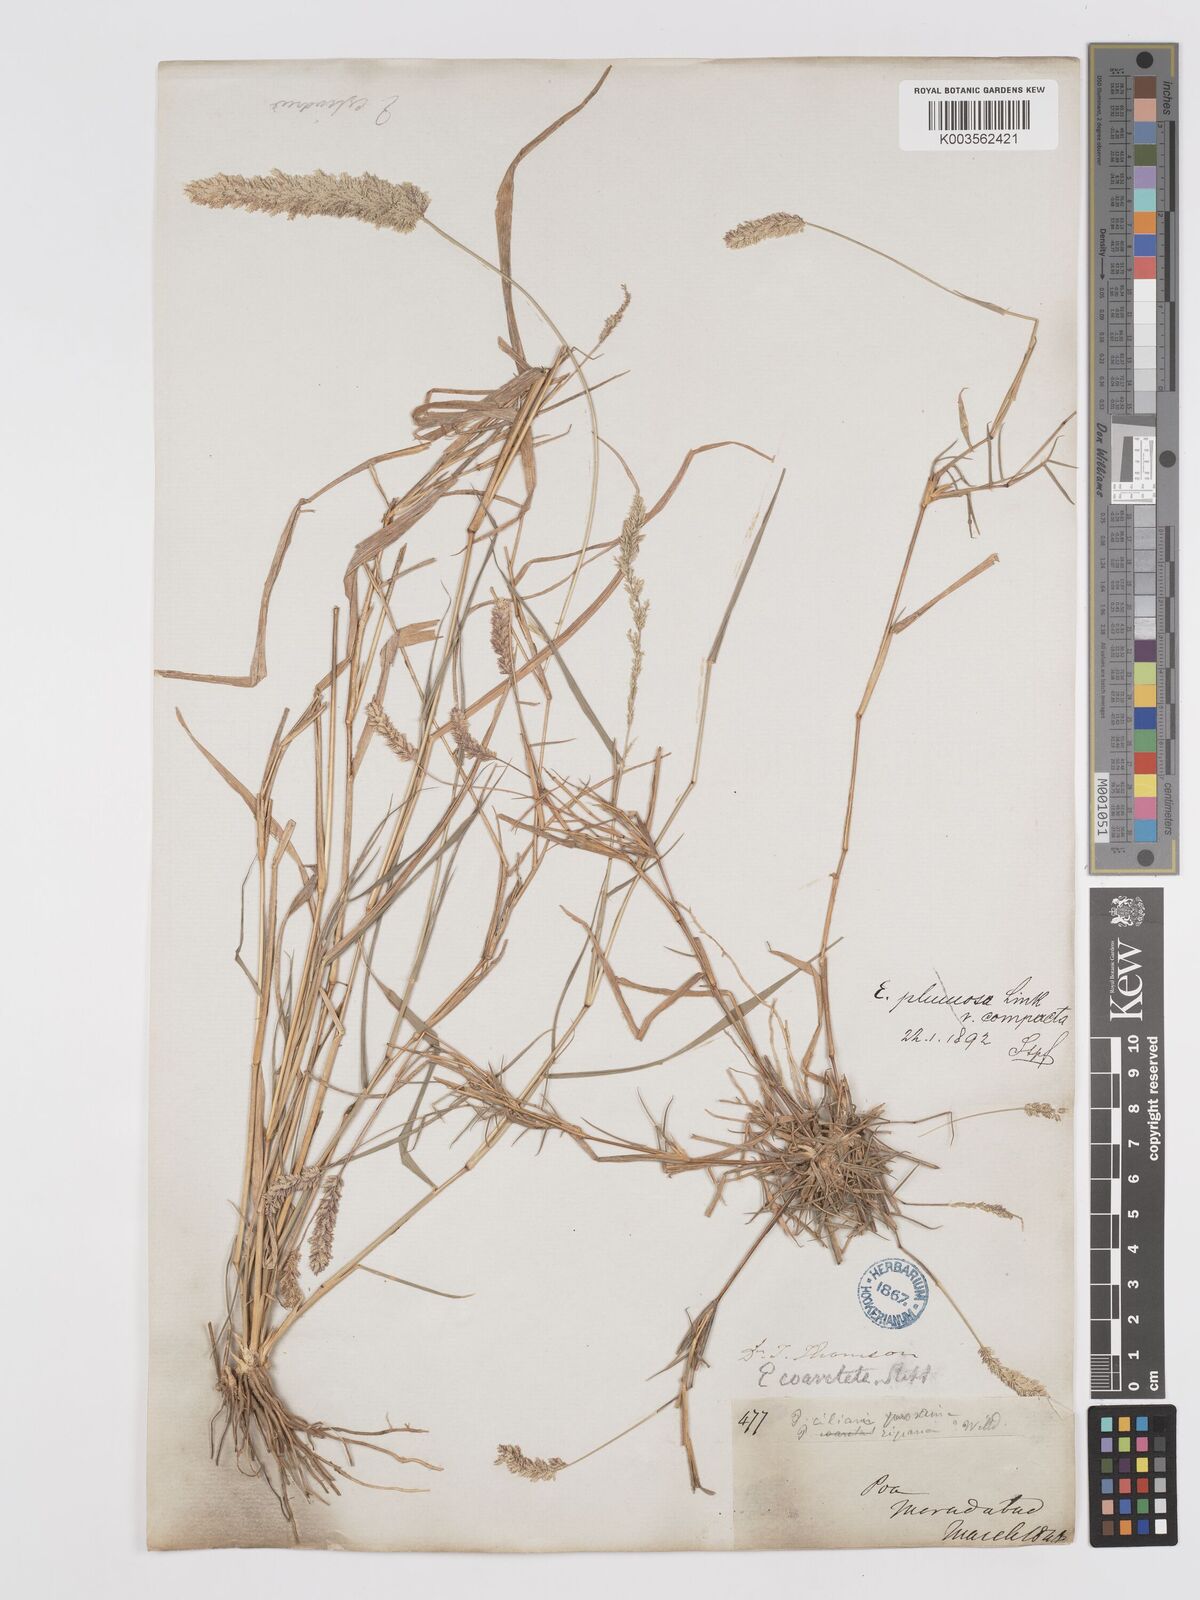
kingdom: Plantae
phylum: Tracheophyta
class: Liliopsida
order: Poales
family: Poaceae
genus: Eragrostis
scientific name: Eragrostis coarctata
